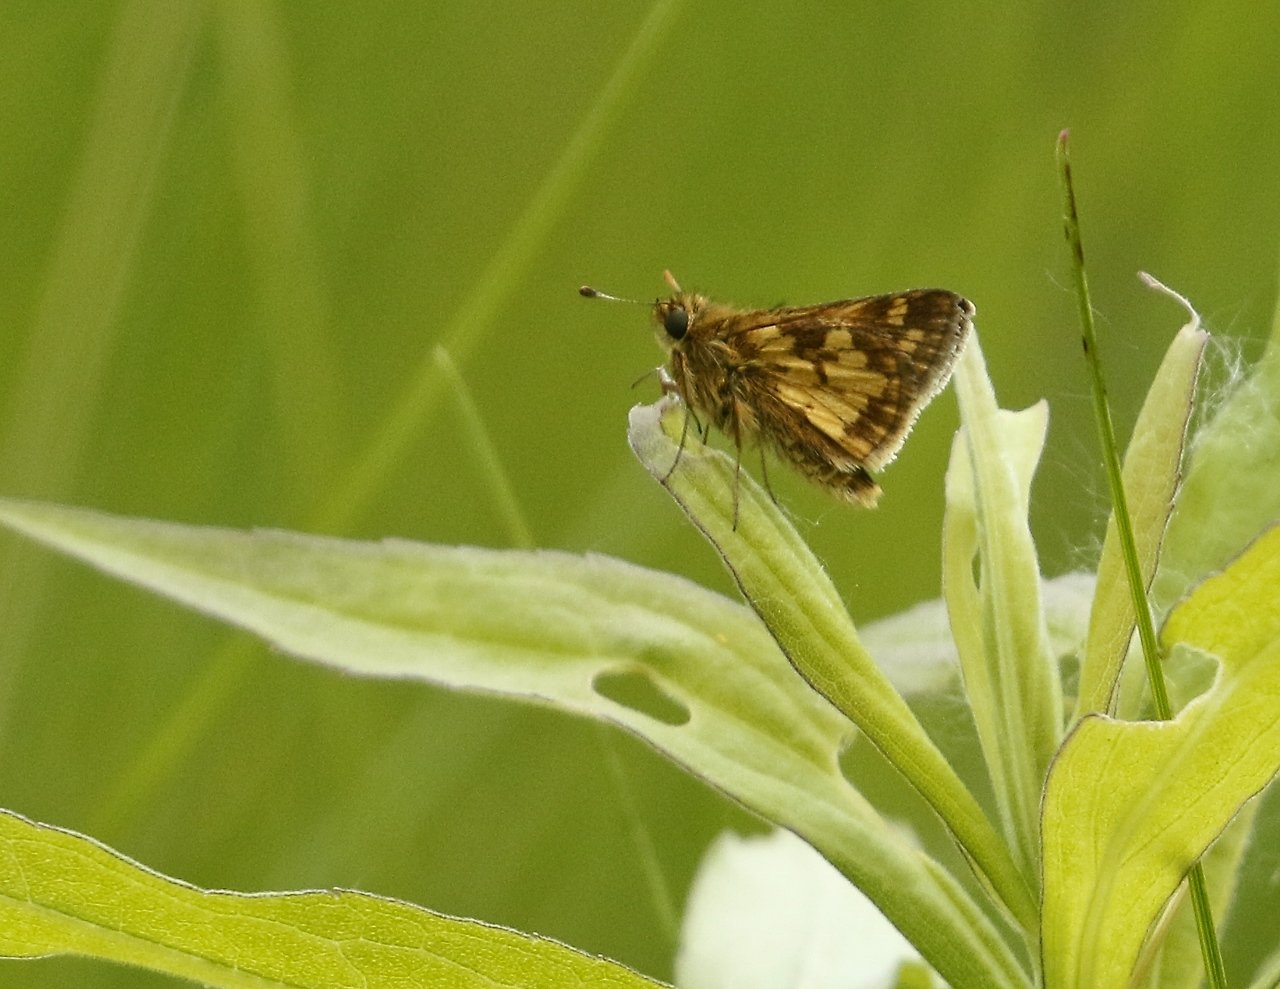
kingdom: Animalia
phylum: Arthropoda
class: Insecta
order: Lepidoptera
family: Hesperiidae
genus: Polites
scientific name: Polites coras
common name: Peck's Skipper
